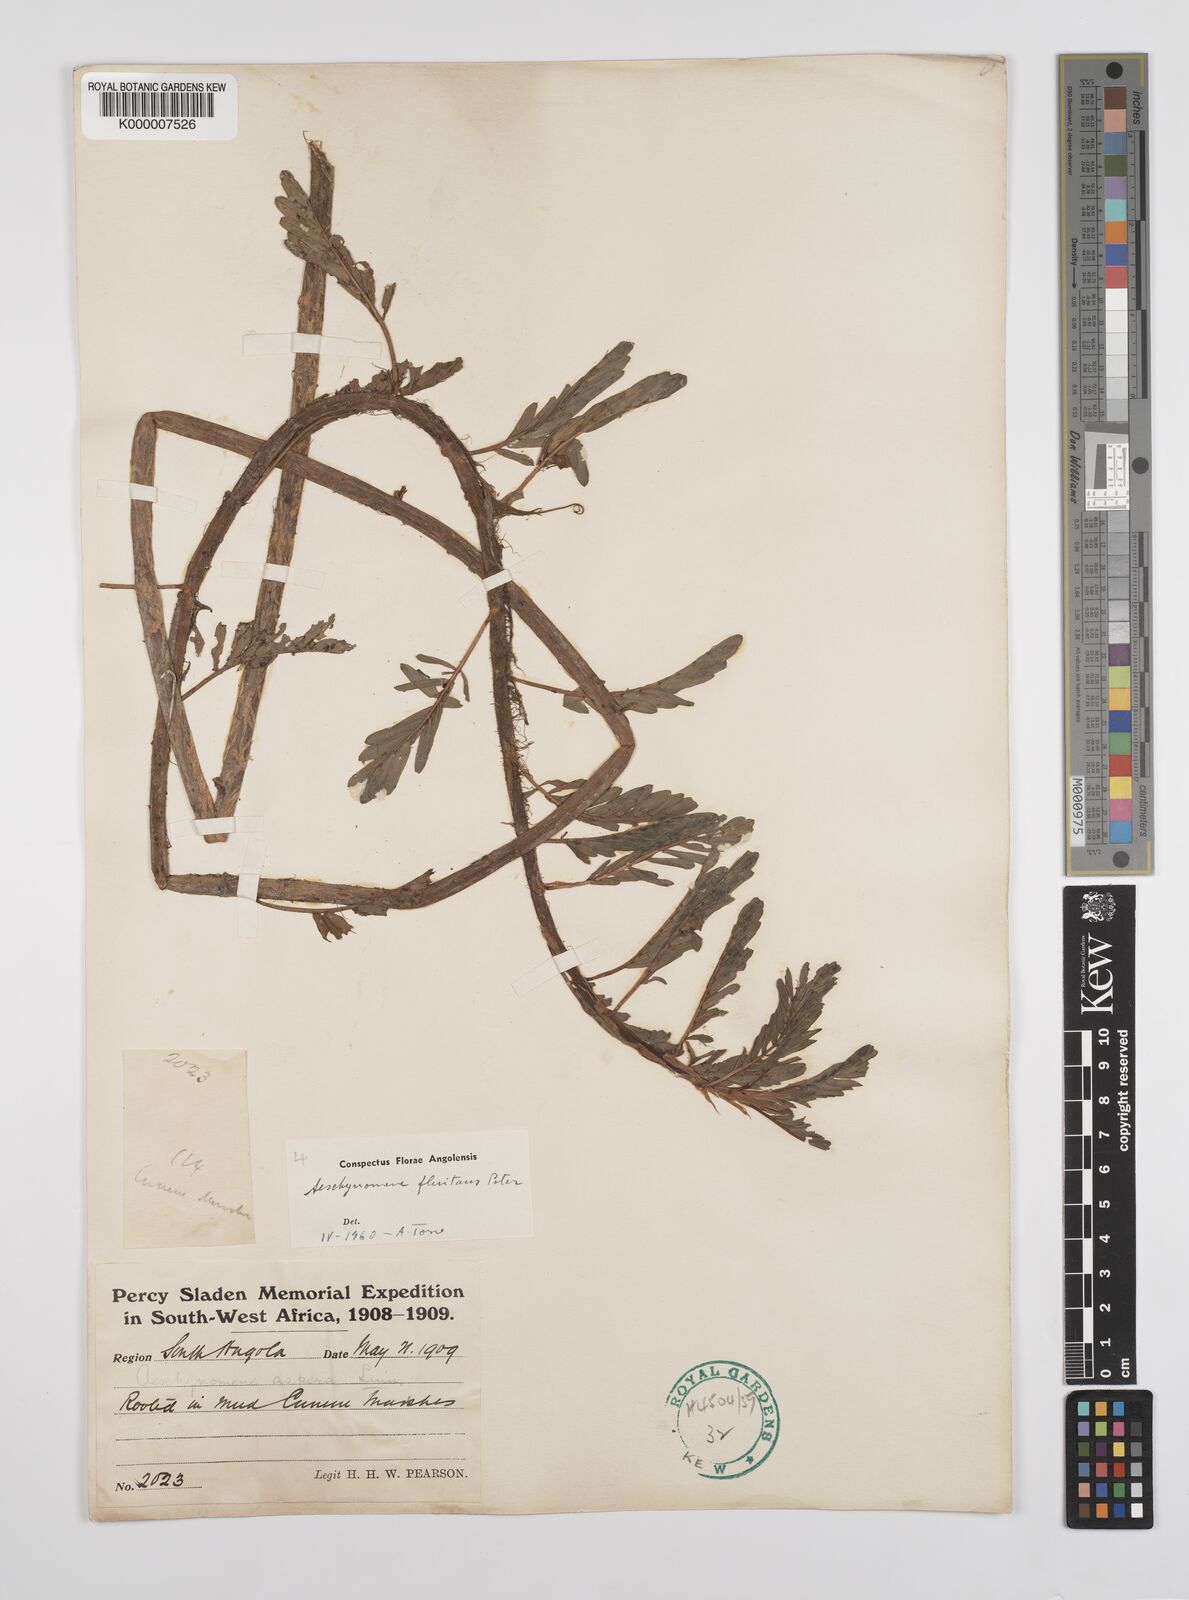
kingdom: Plantae
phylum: Tracheophyta
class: Magnoliopsida
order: Fabales
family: Fabaceae
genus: Aeschynomene
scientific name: Aeschynomene fluitans
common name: Giant water sensitive plant
